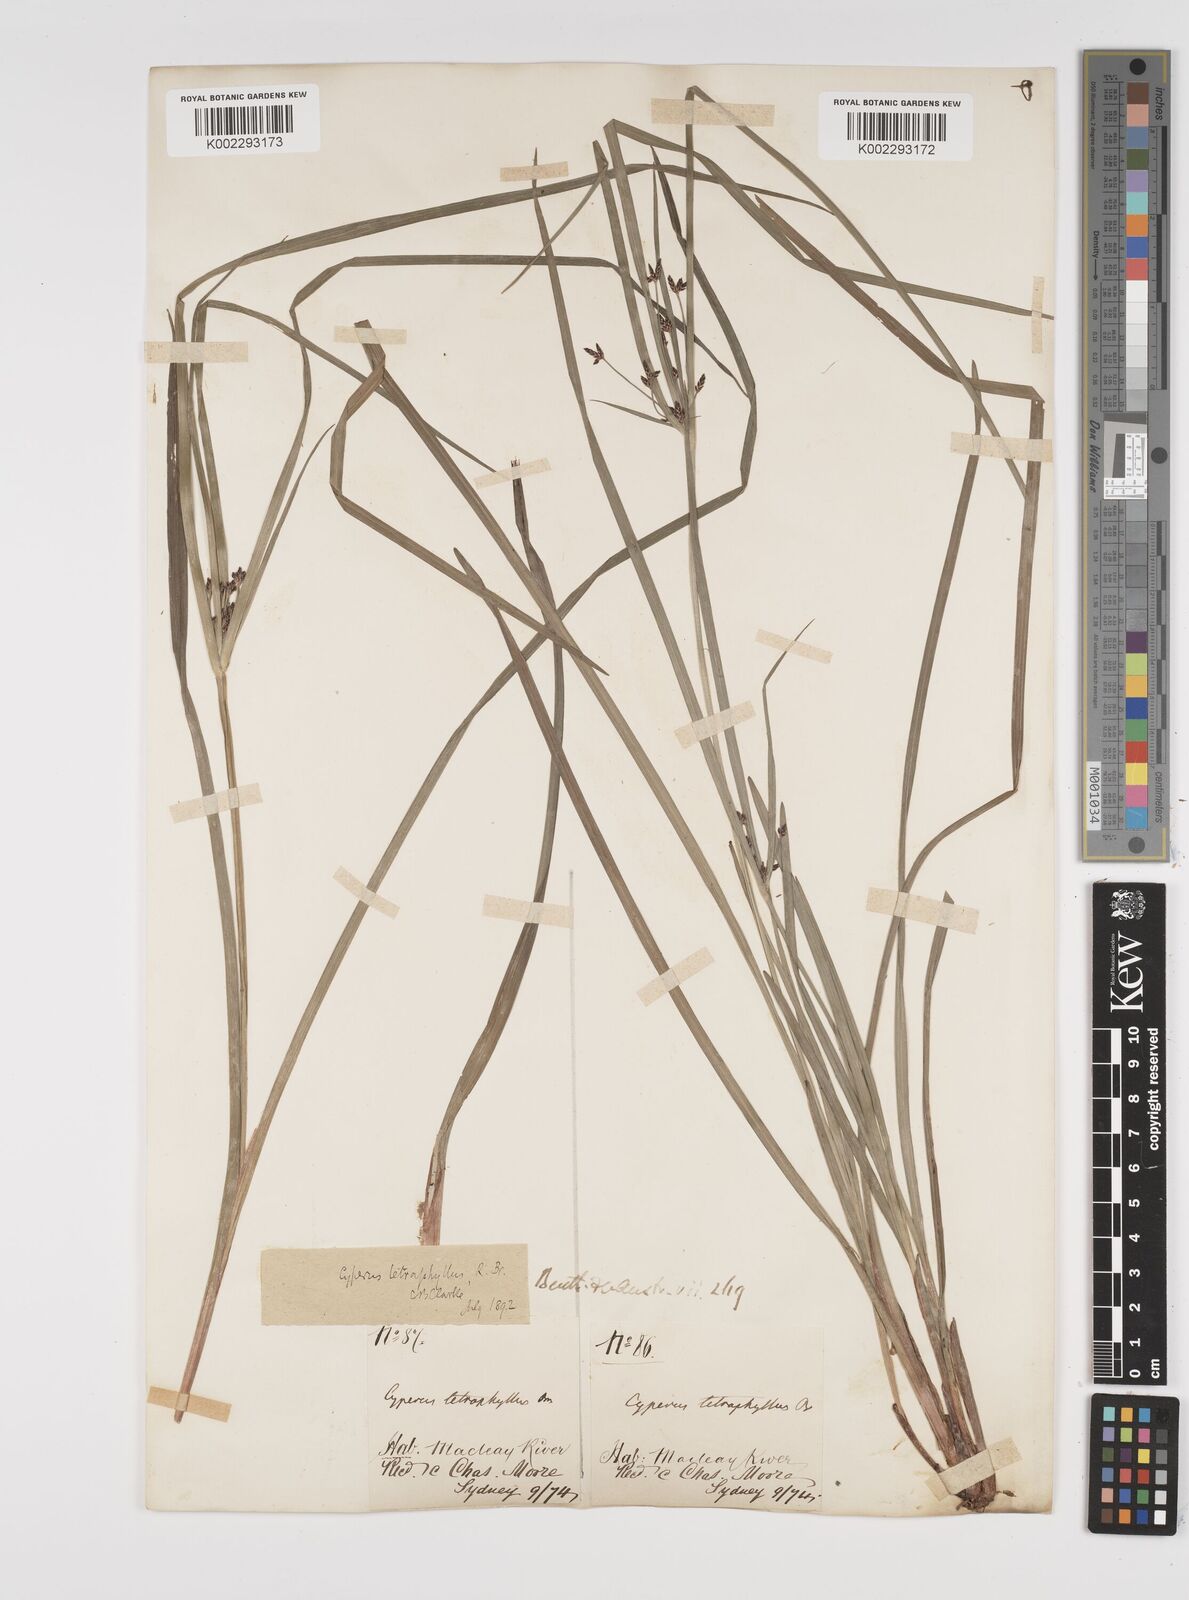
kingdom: Plantae
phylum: Tracheophyta
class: Liliopsida
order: Poales
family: Cyperaceae
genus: Cyperus
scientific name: Cyperus tetraphyllus
